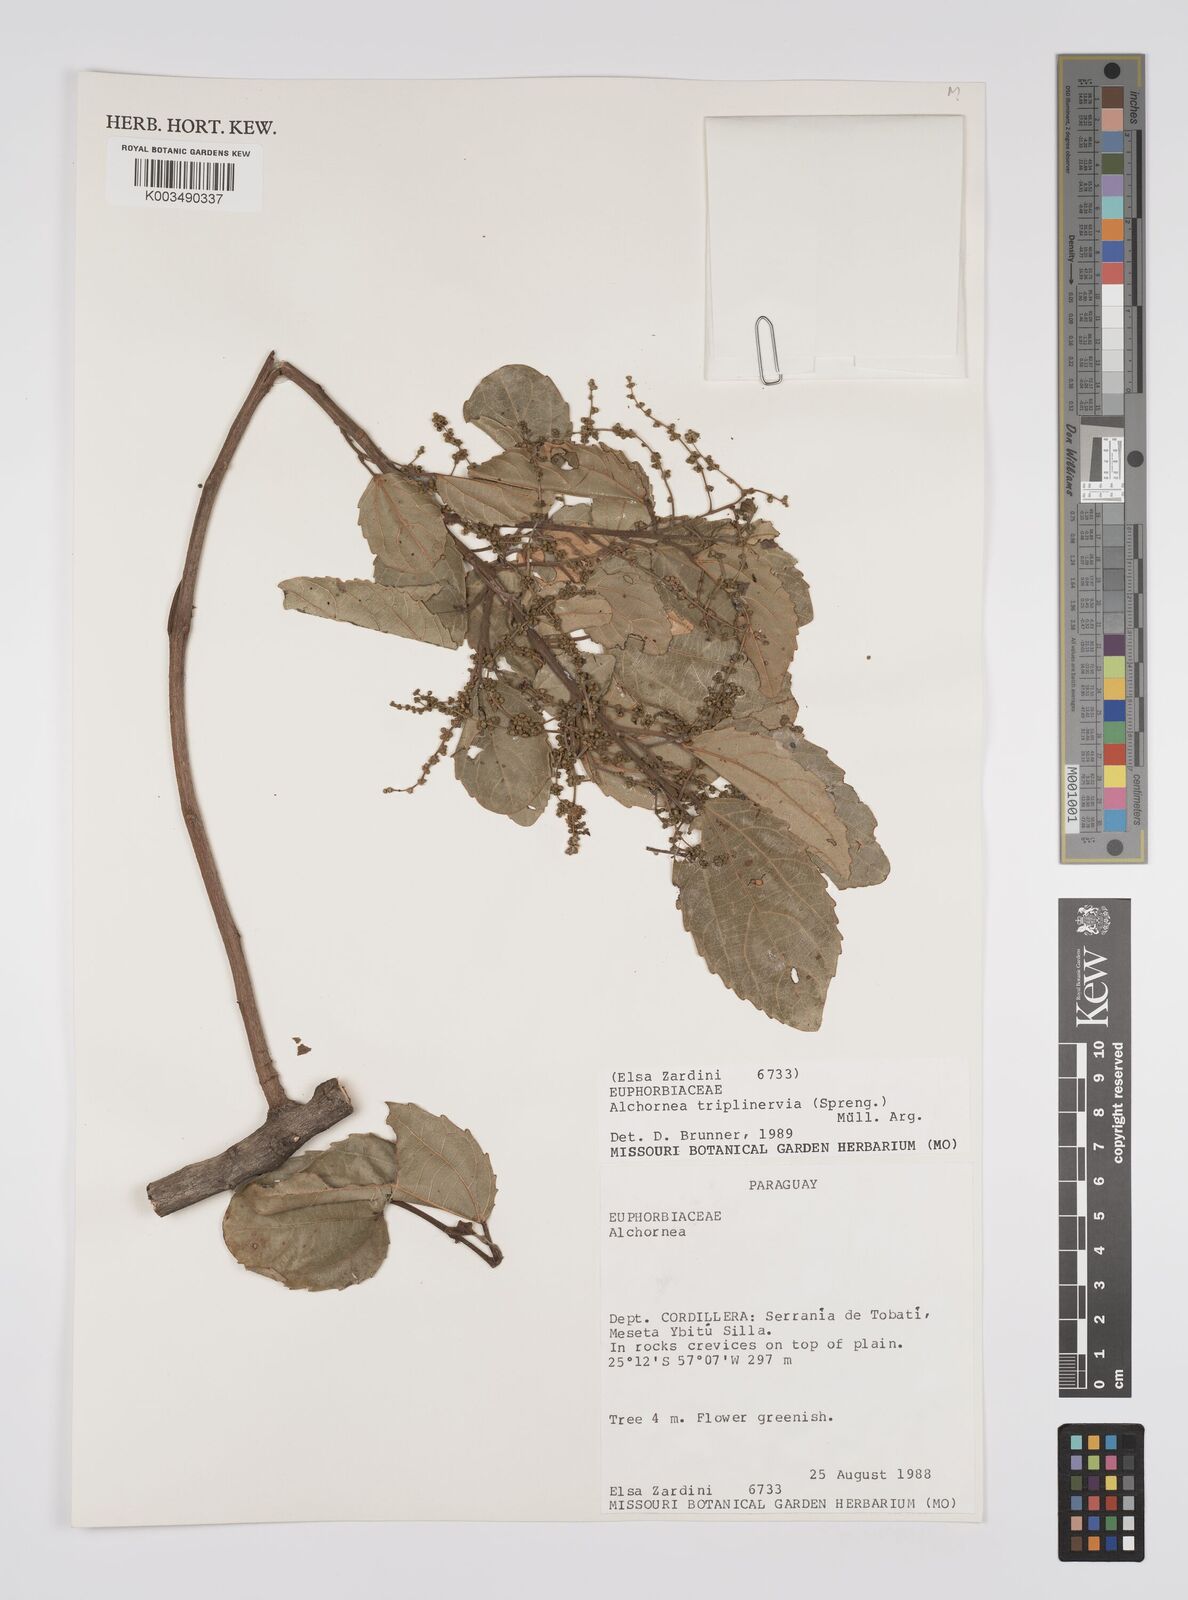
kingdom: Plantae
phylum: Tracheophyta
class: Magnoliopsida
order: Malpighiales
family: Euphorbiaceae
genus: Alchornea
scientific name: Alchornea triplinervia
